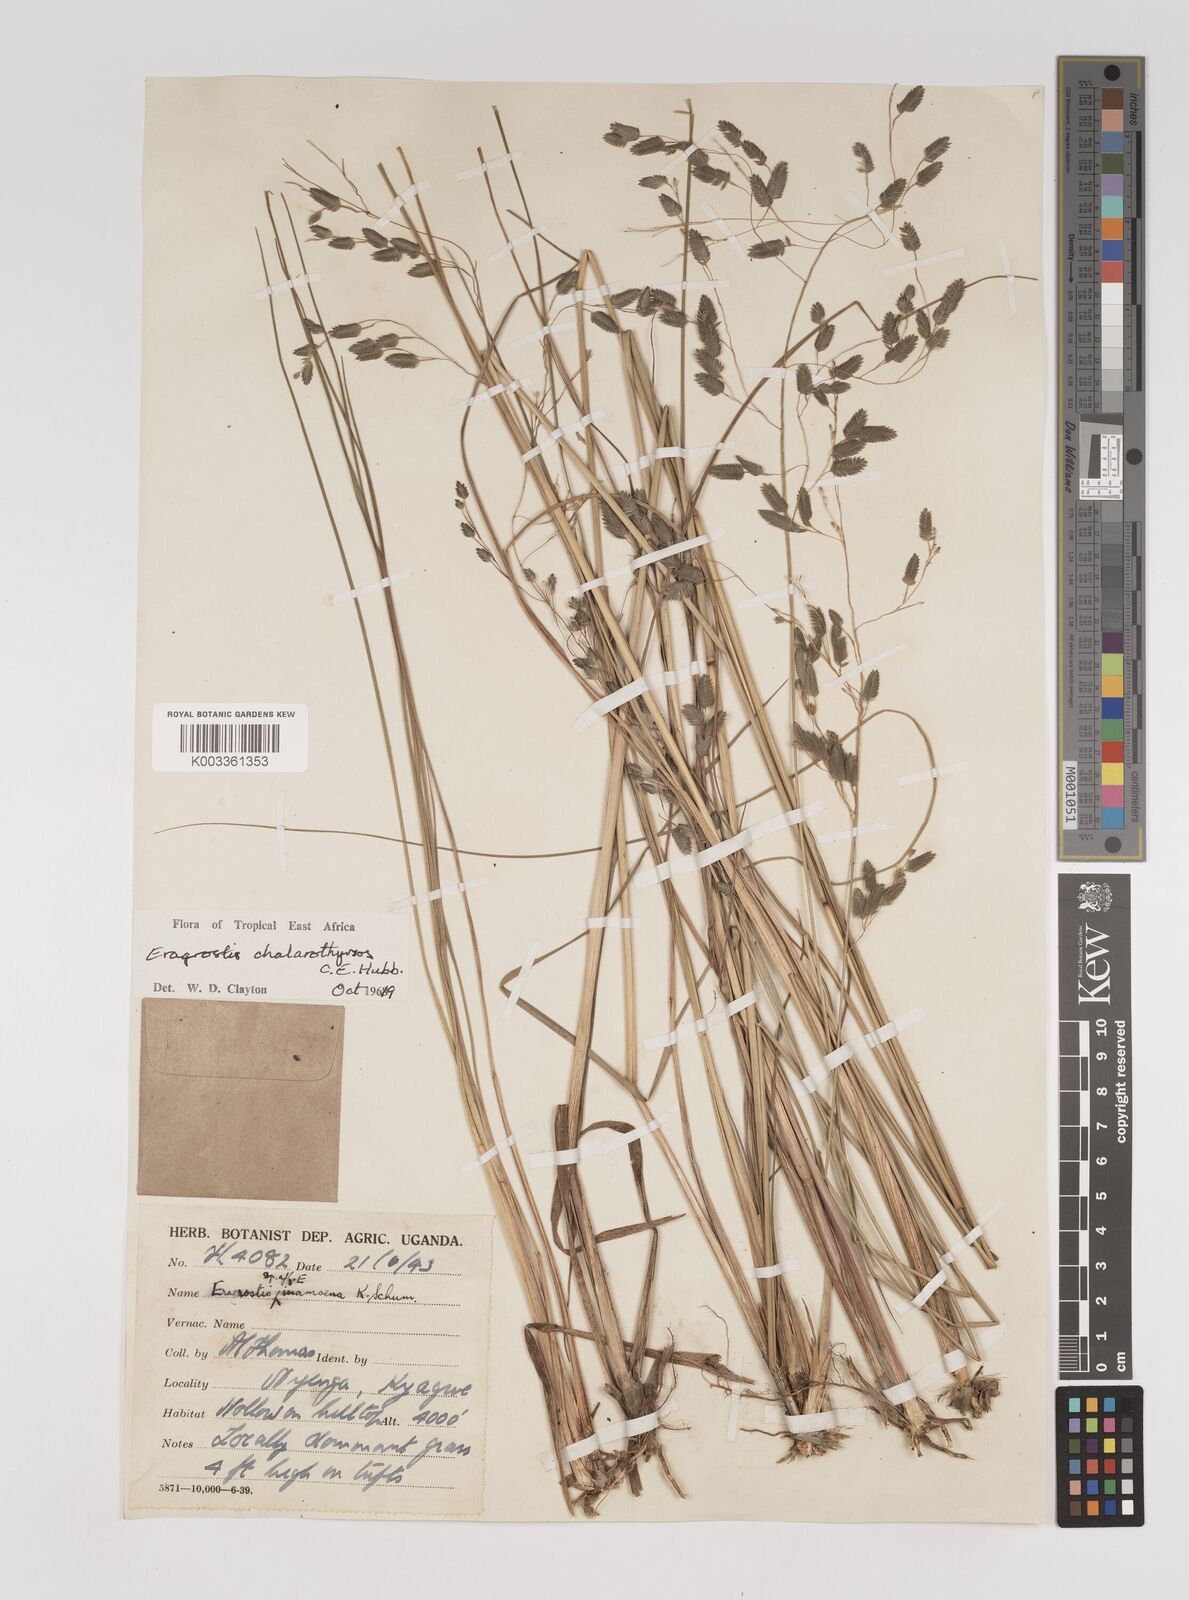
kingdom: Plantae
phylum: Tracheophyta
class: Liliopsida
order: Poales
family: Poaceae
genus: Eragrostis
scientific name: Eragrostis chalarothyrsos
